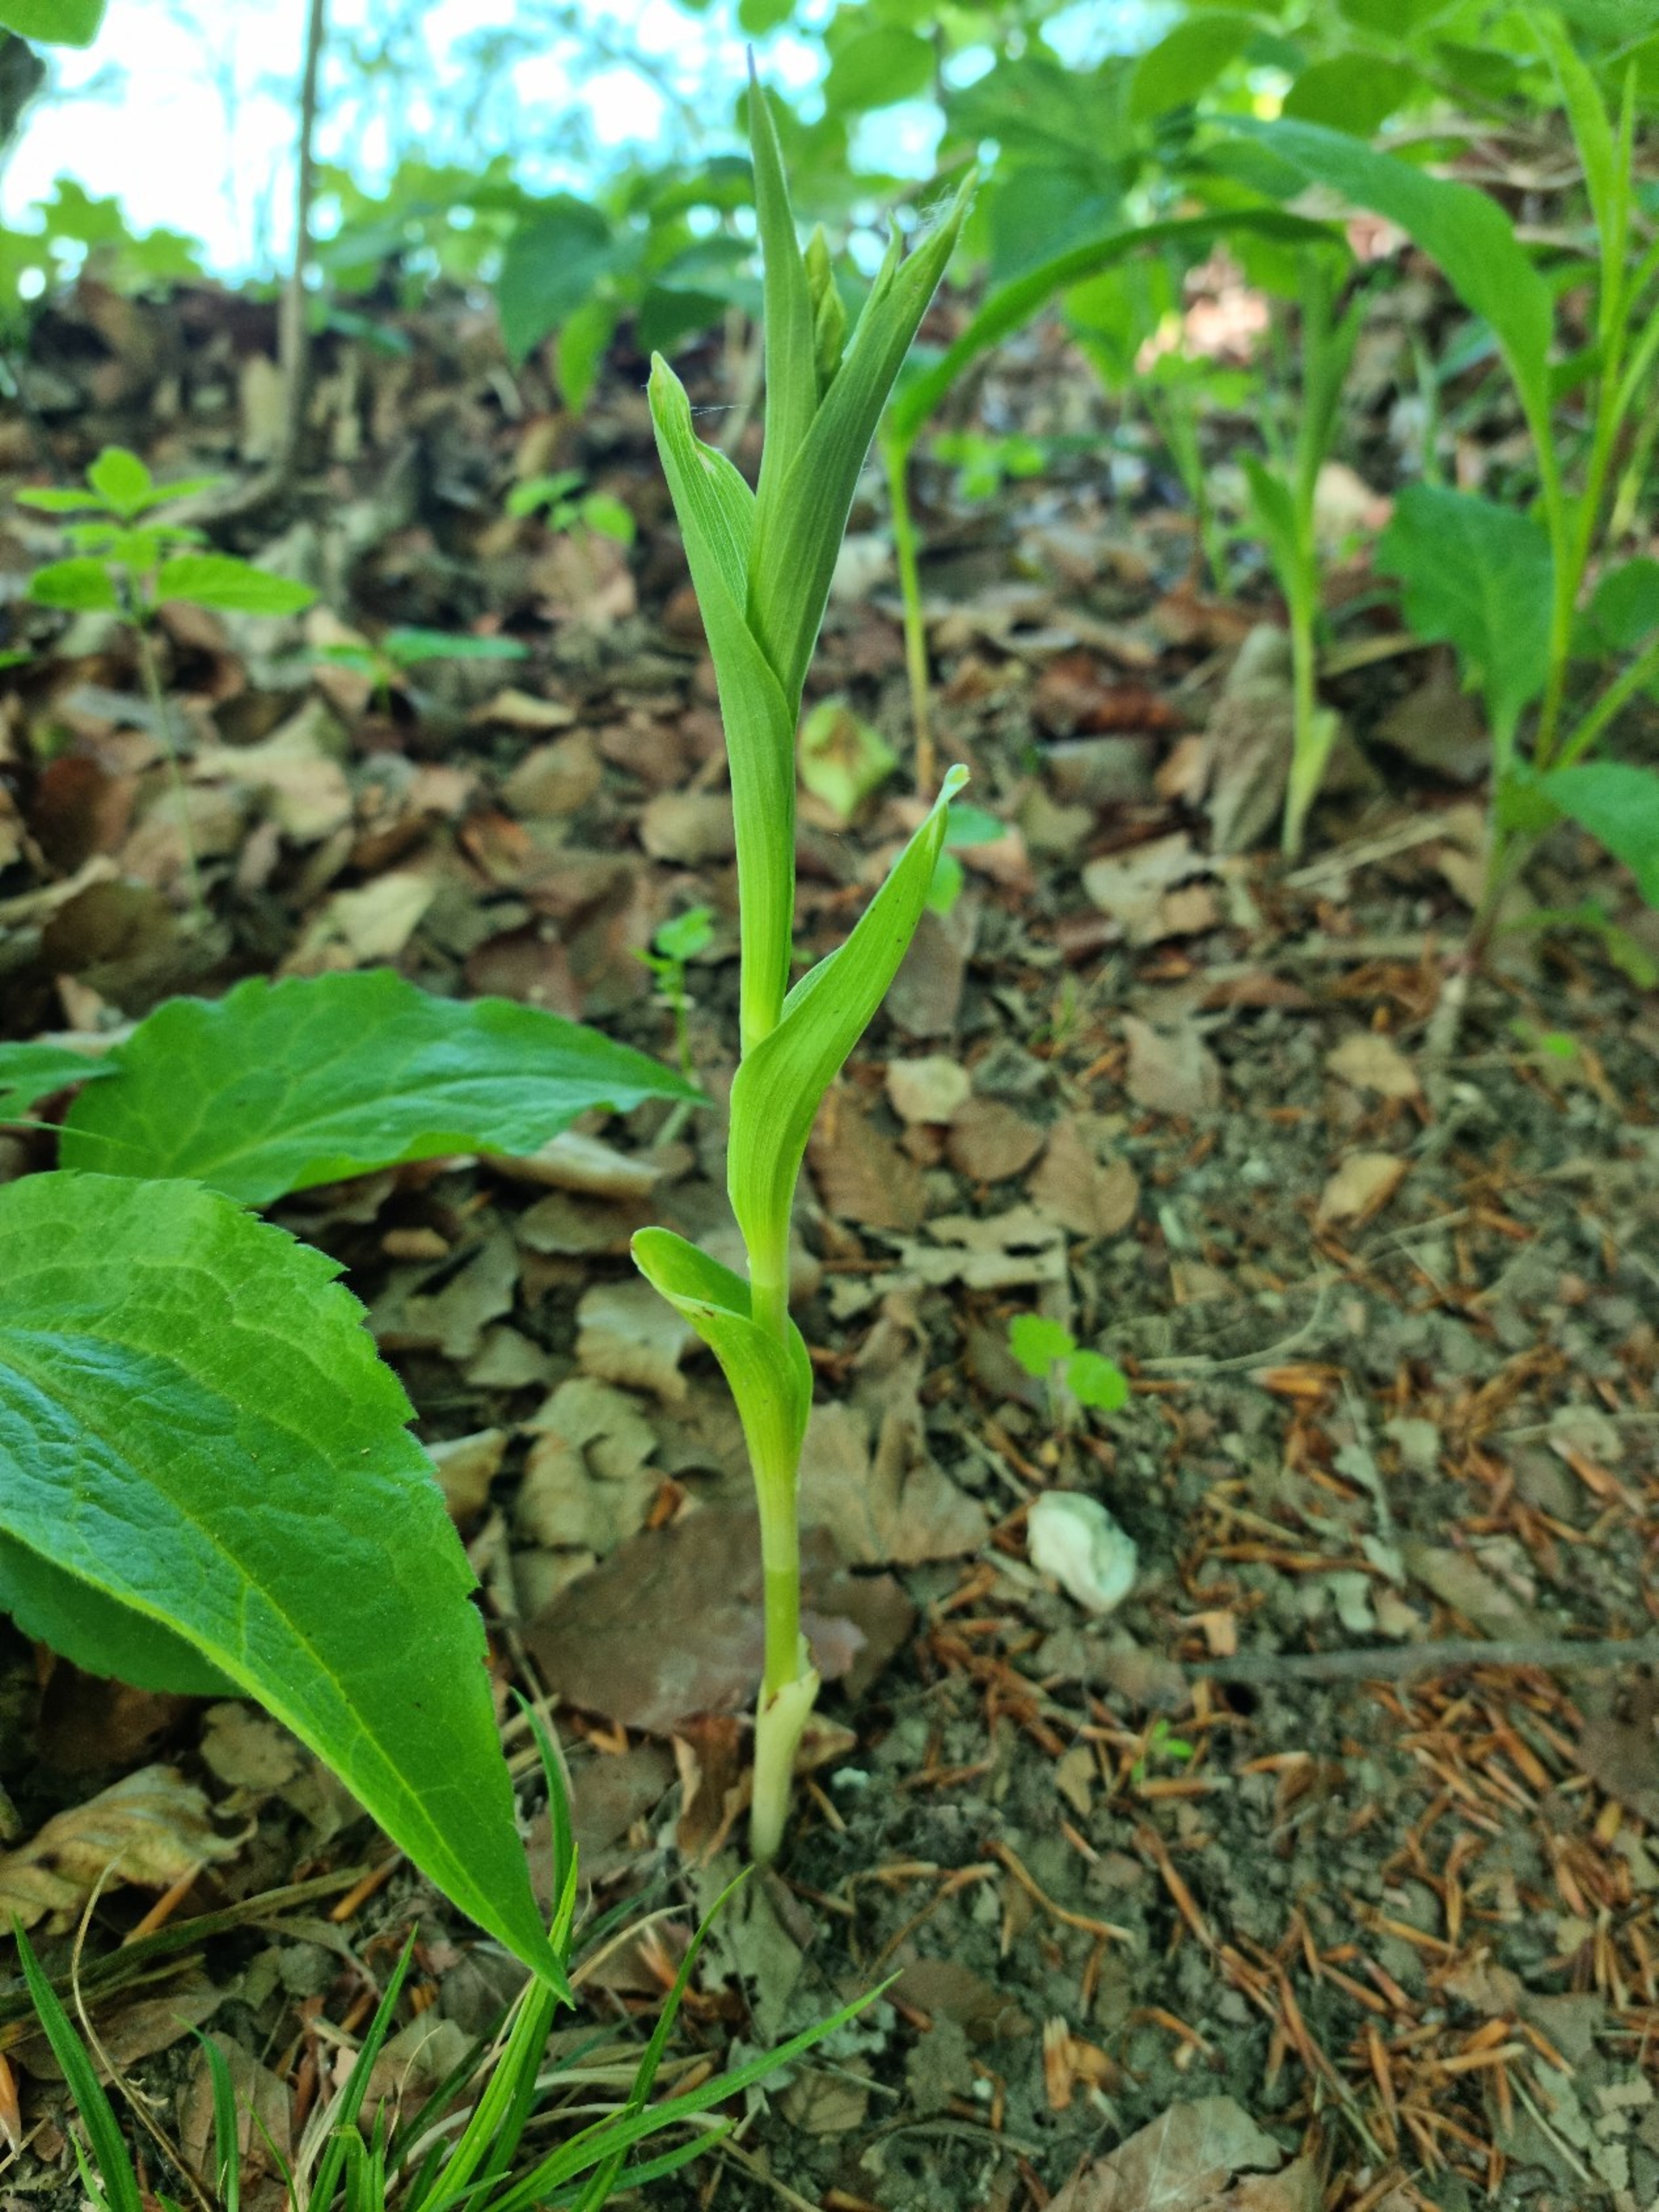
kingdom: Plantae
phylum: Tracheophyta
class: Liliopsida
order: Asparagales
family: Orchidaceae
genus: Cephalanthera
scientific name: Cephalanthera damasonium
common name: Hvidgul skovlilje
